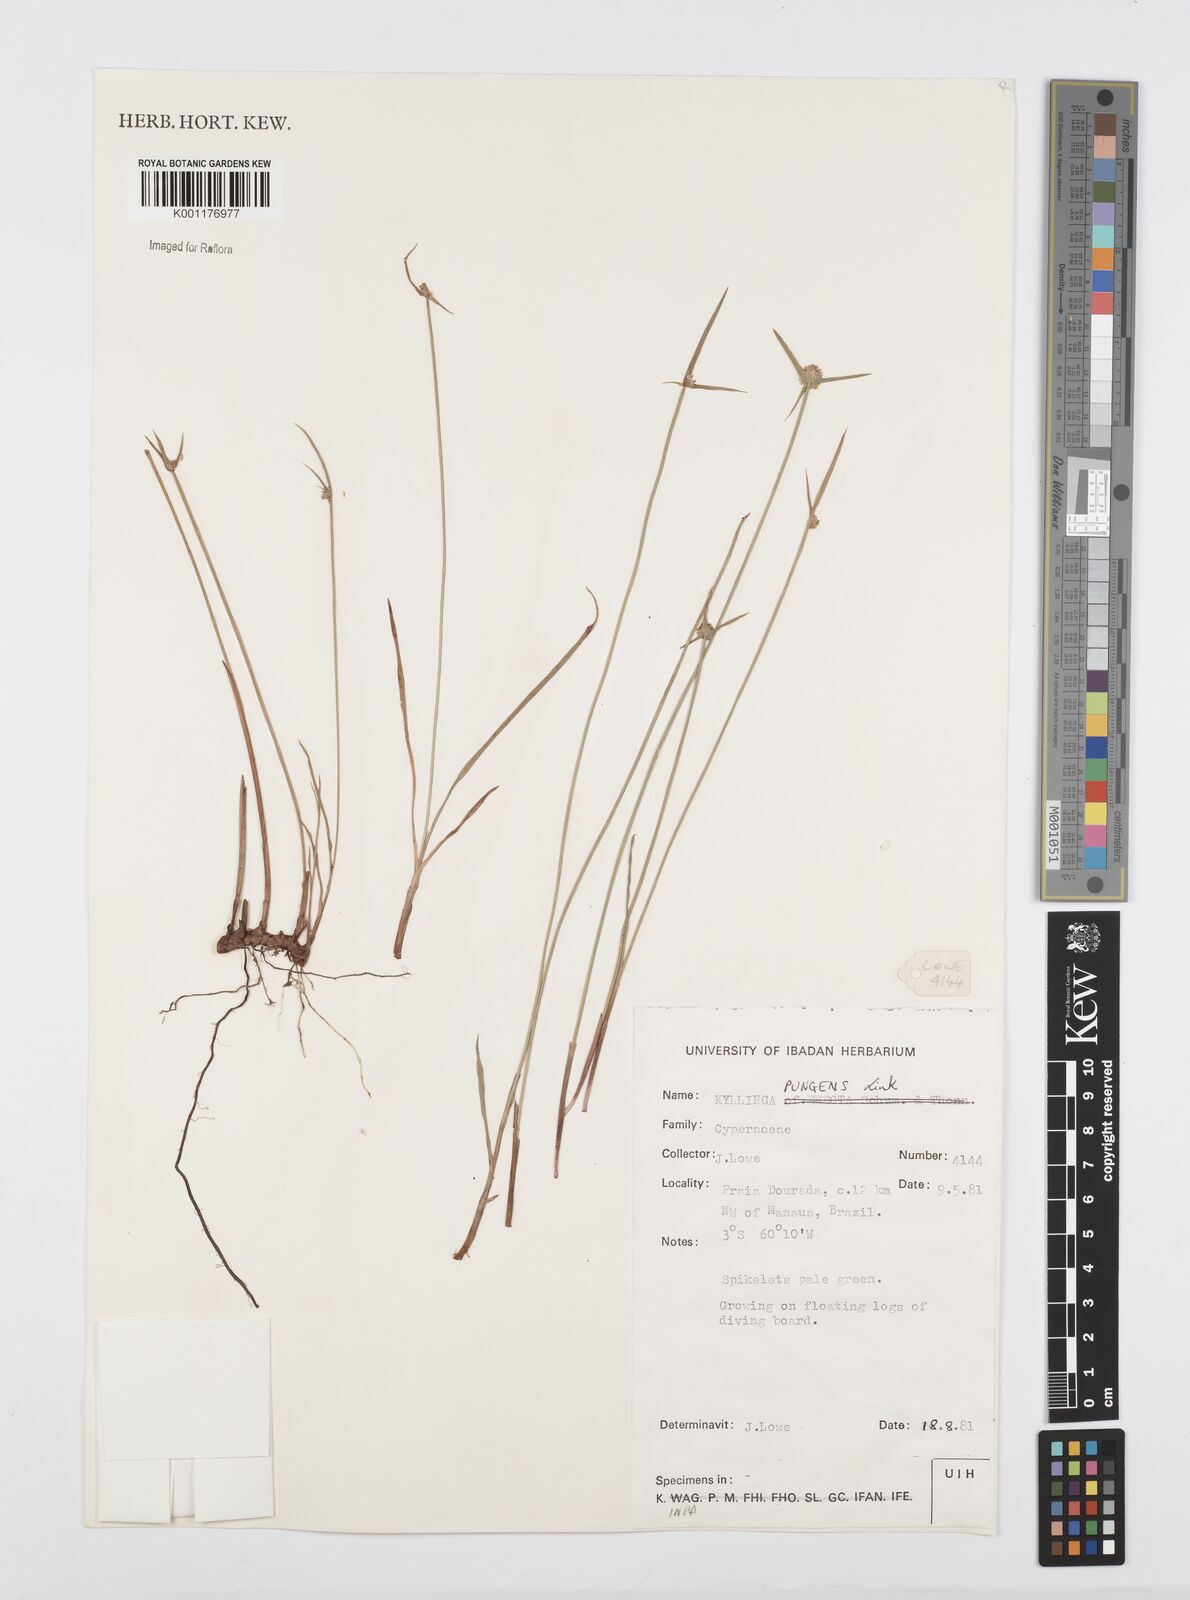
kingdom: Plantae
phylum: Tracheophyta
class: Liliopsida
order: Poales
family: Cyperaceae
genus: Cyperus
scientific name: Cyperus obtusatus
